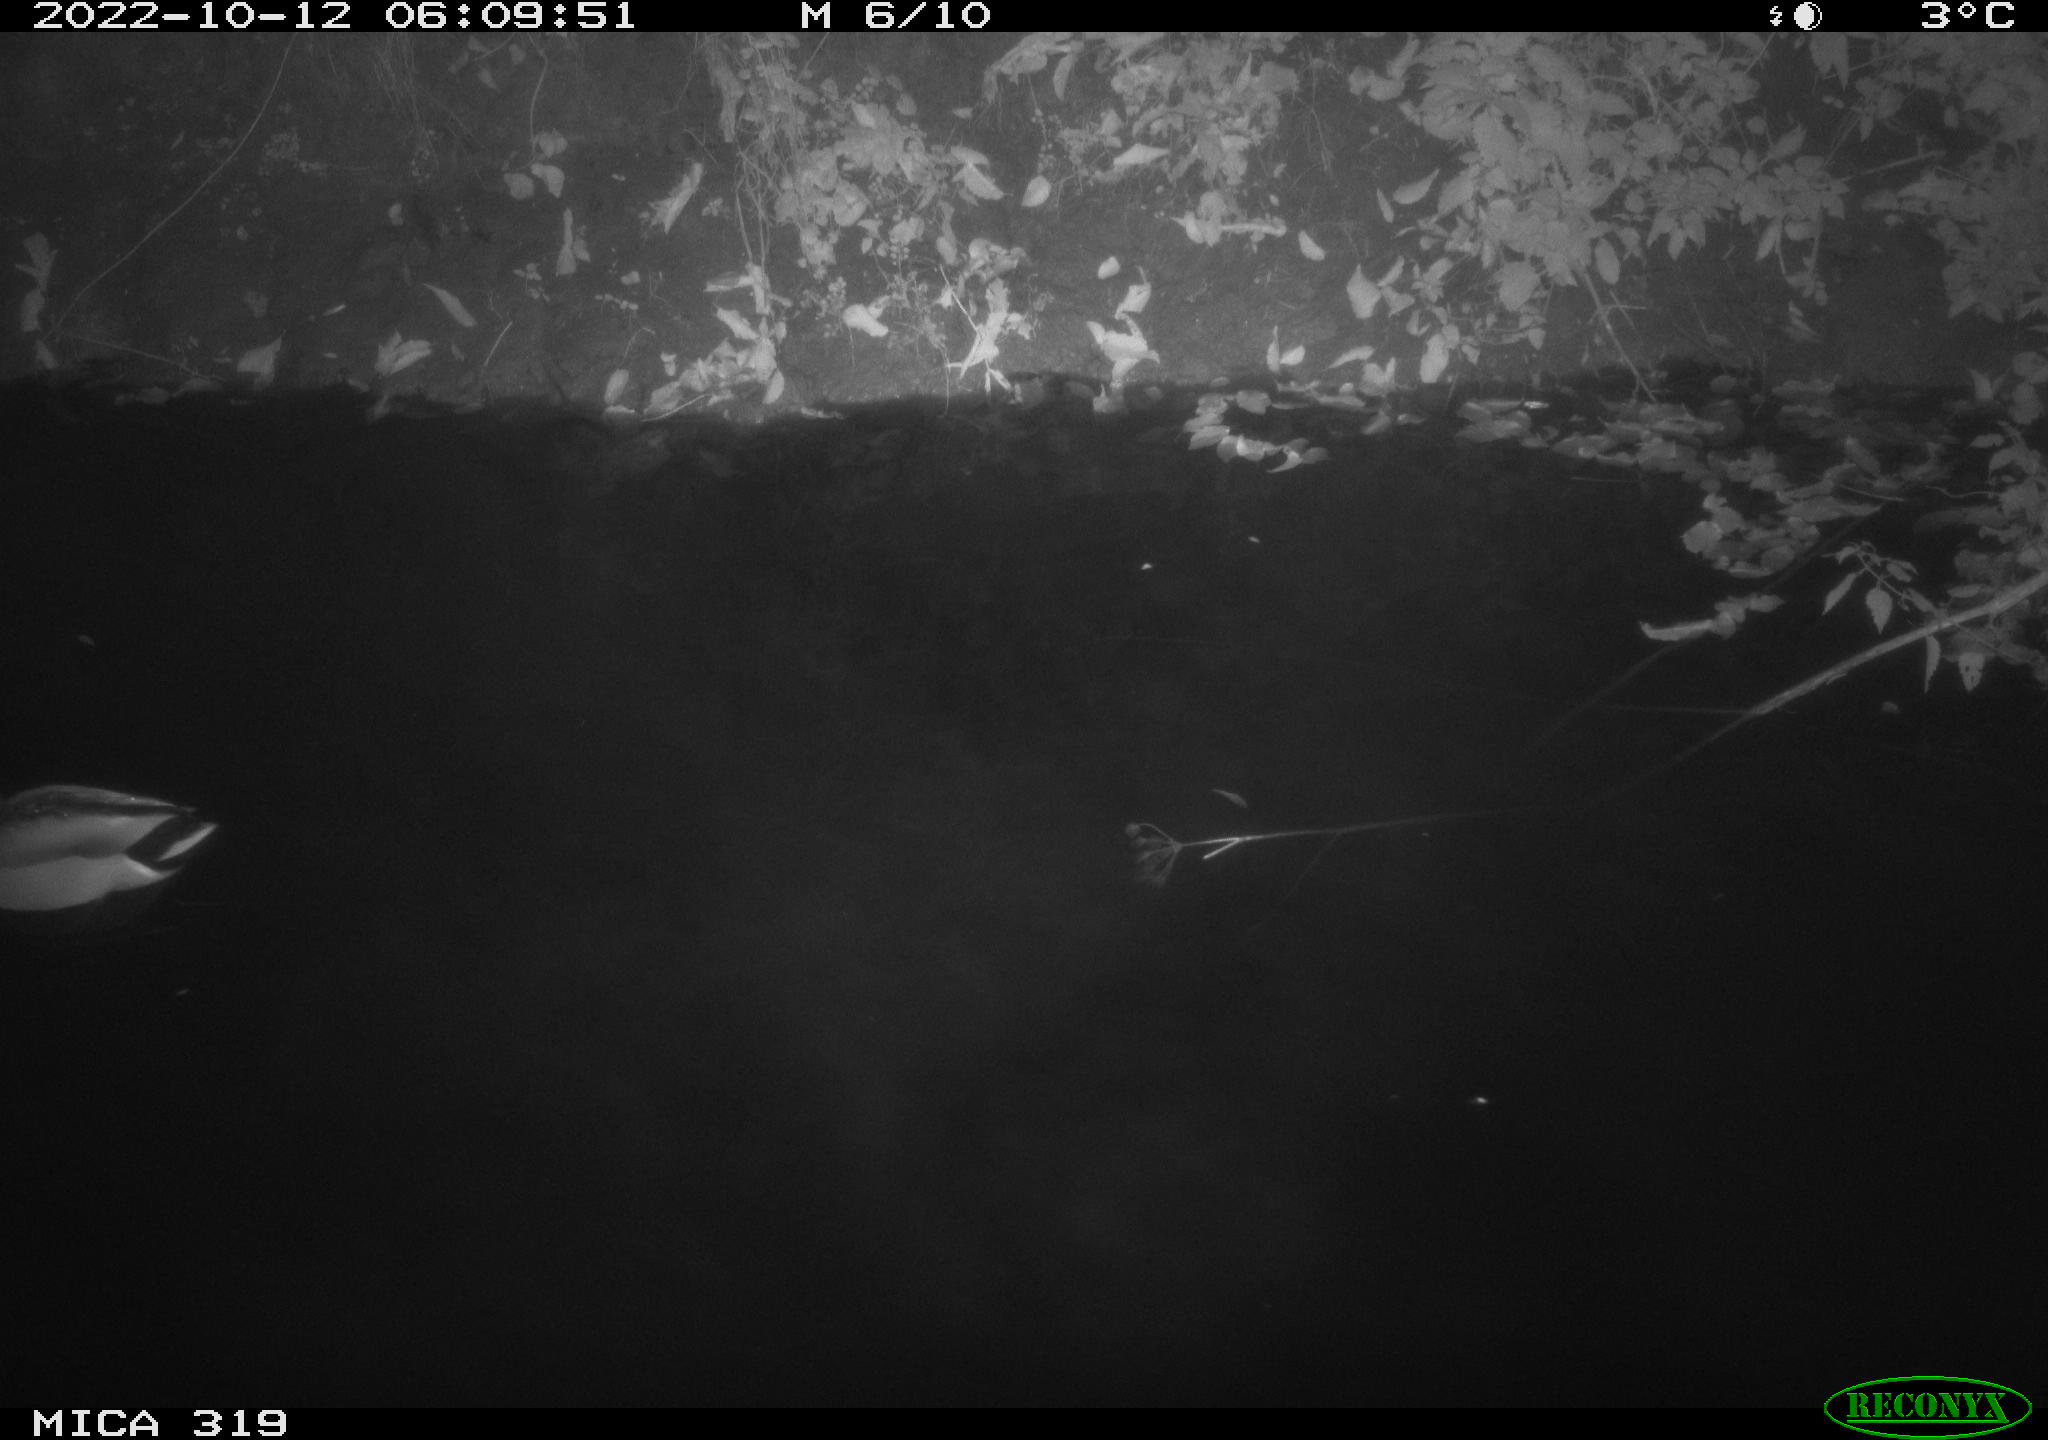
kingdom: Animalia
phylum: Chordata
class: Aves
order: Anseriformes
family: Anatidae
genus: Anas
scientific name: Anas
